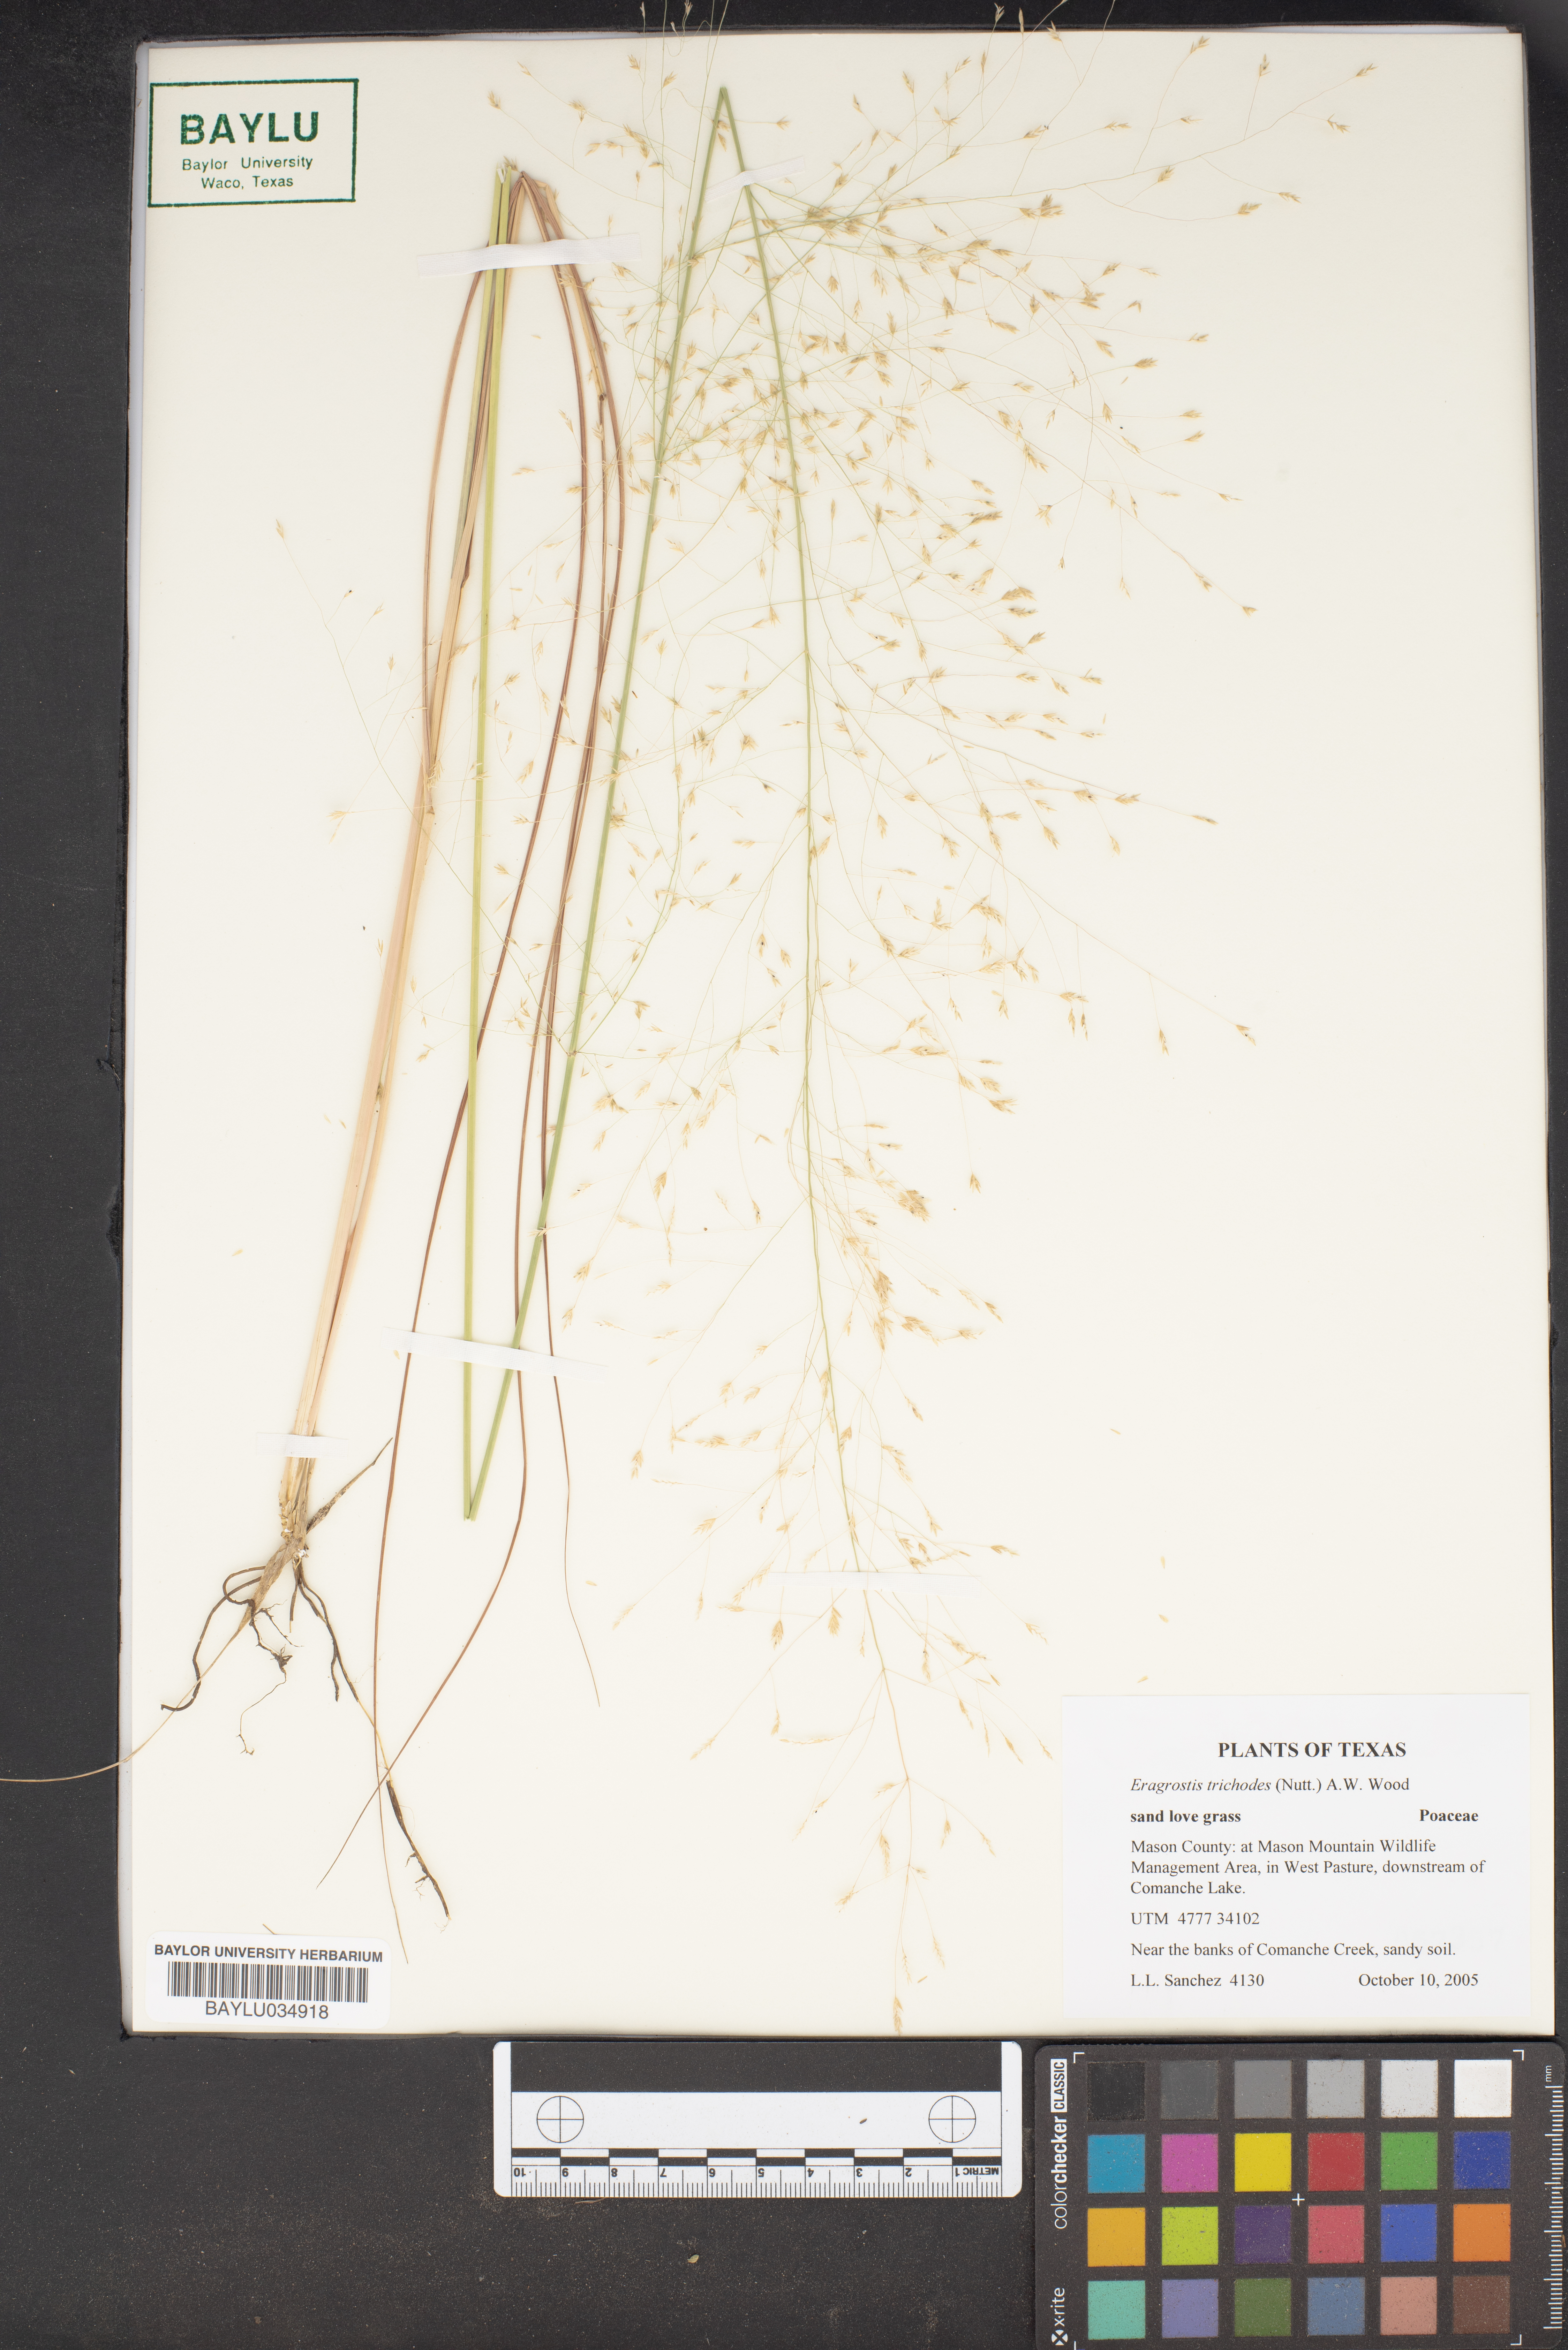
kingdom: Plantae
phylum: Tracheophyta
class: Liliopsida
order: Poales
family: Poaceae
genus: Eragrostis
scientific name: Eragrostis trichodes
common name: Sand love grass
